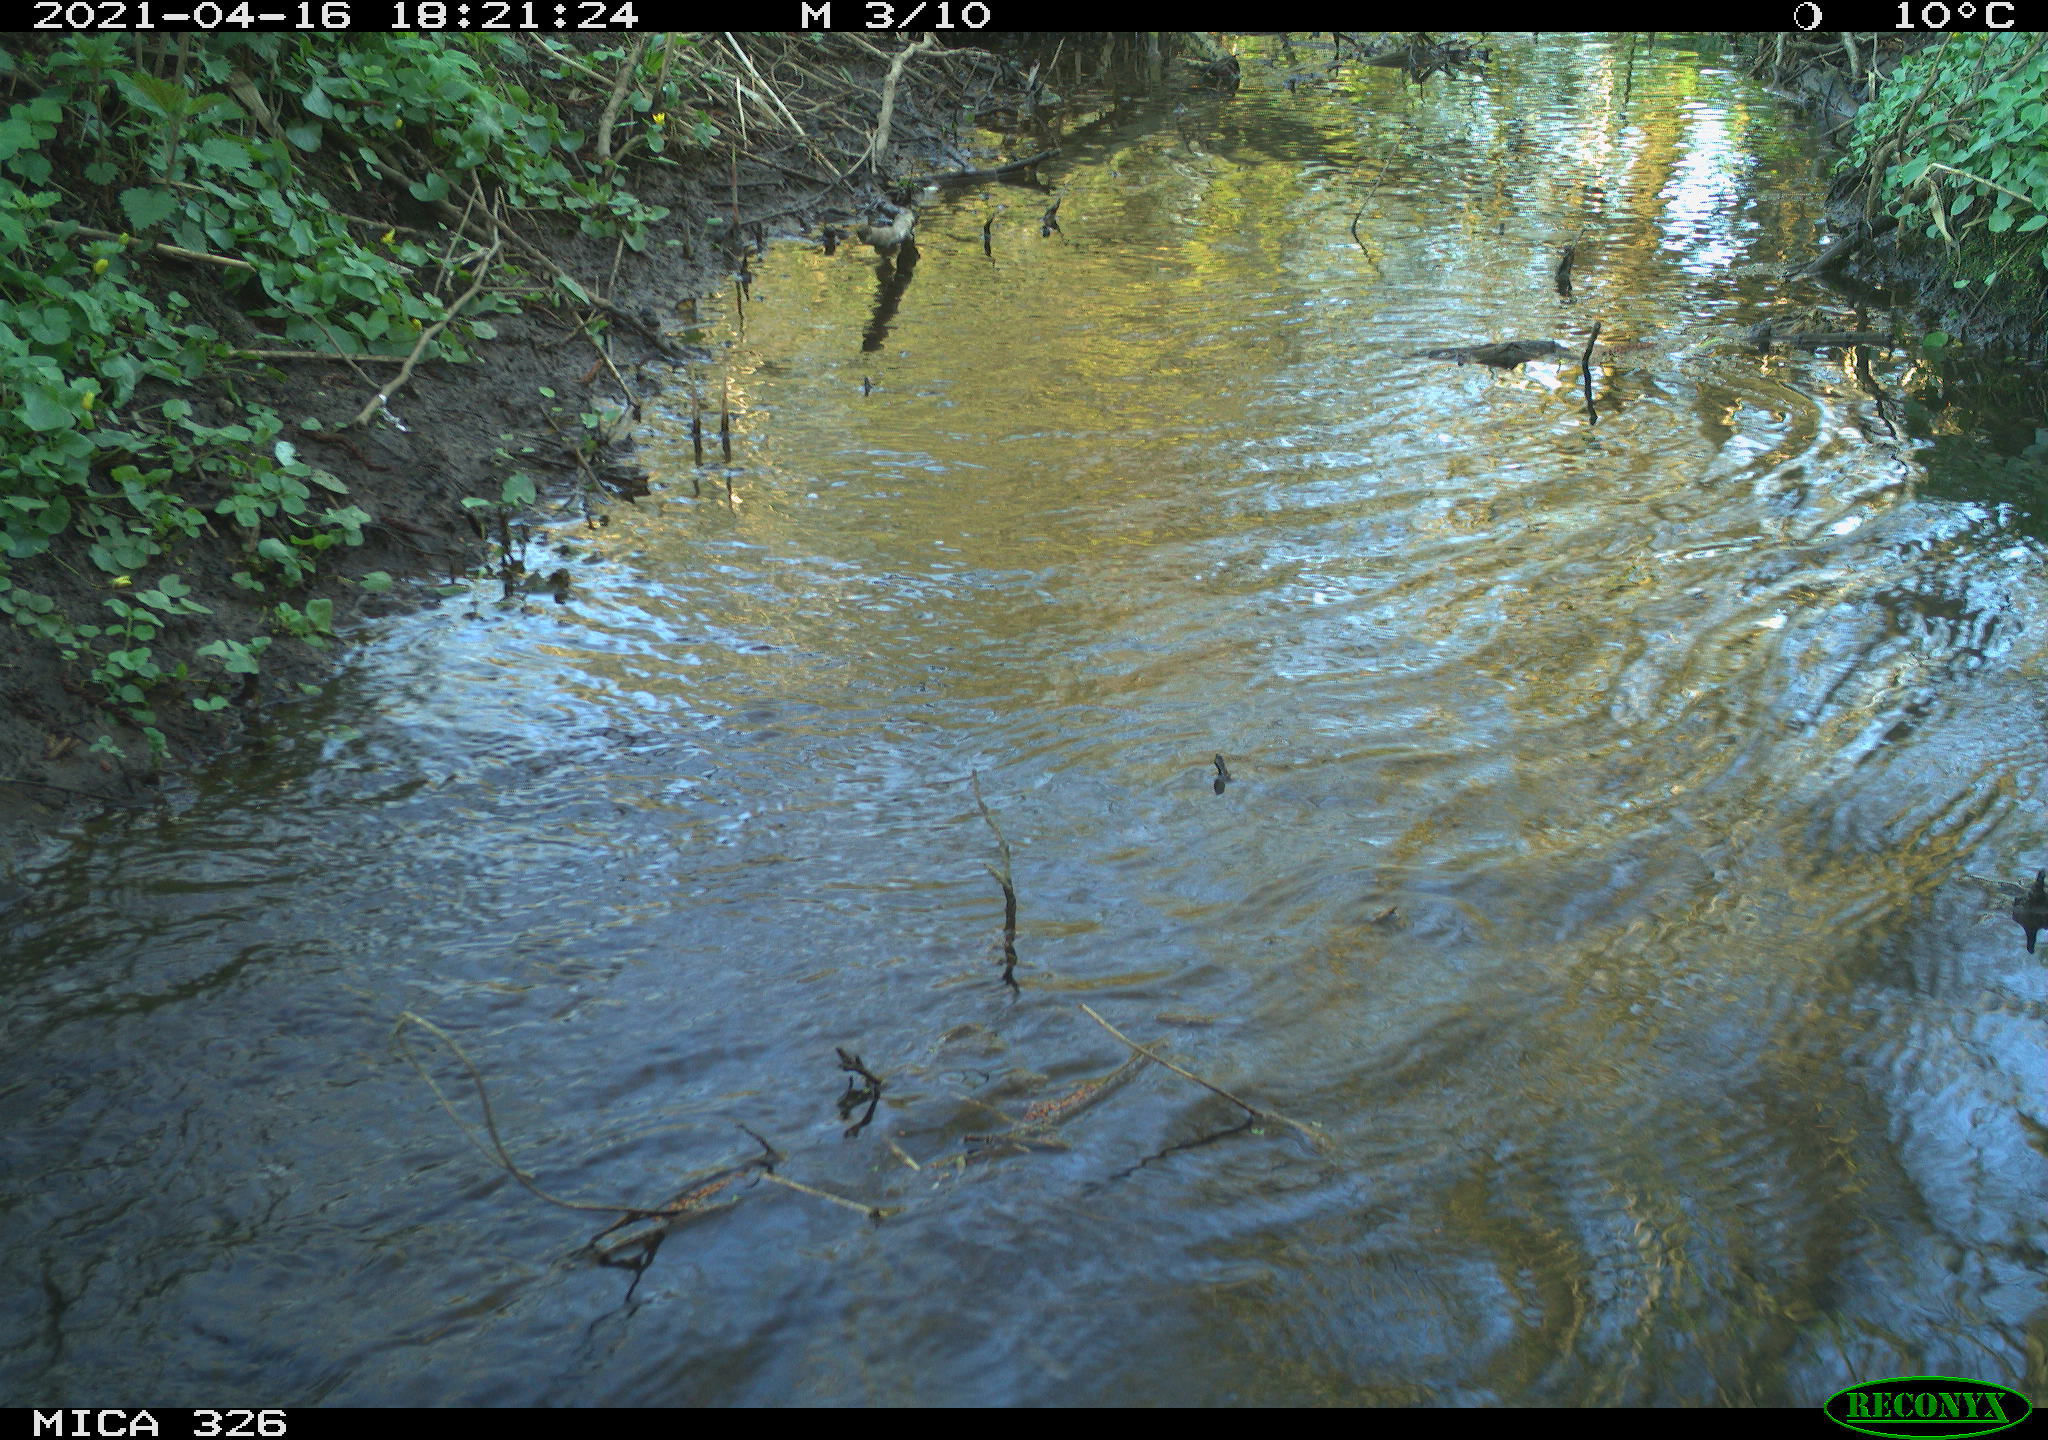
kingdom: Animalia
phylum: Chordata
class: Mammalia
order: Rodentia
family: Cricetidae
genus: Ondatra
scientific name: Ondatra zibethicus
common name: Muskrat
